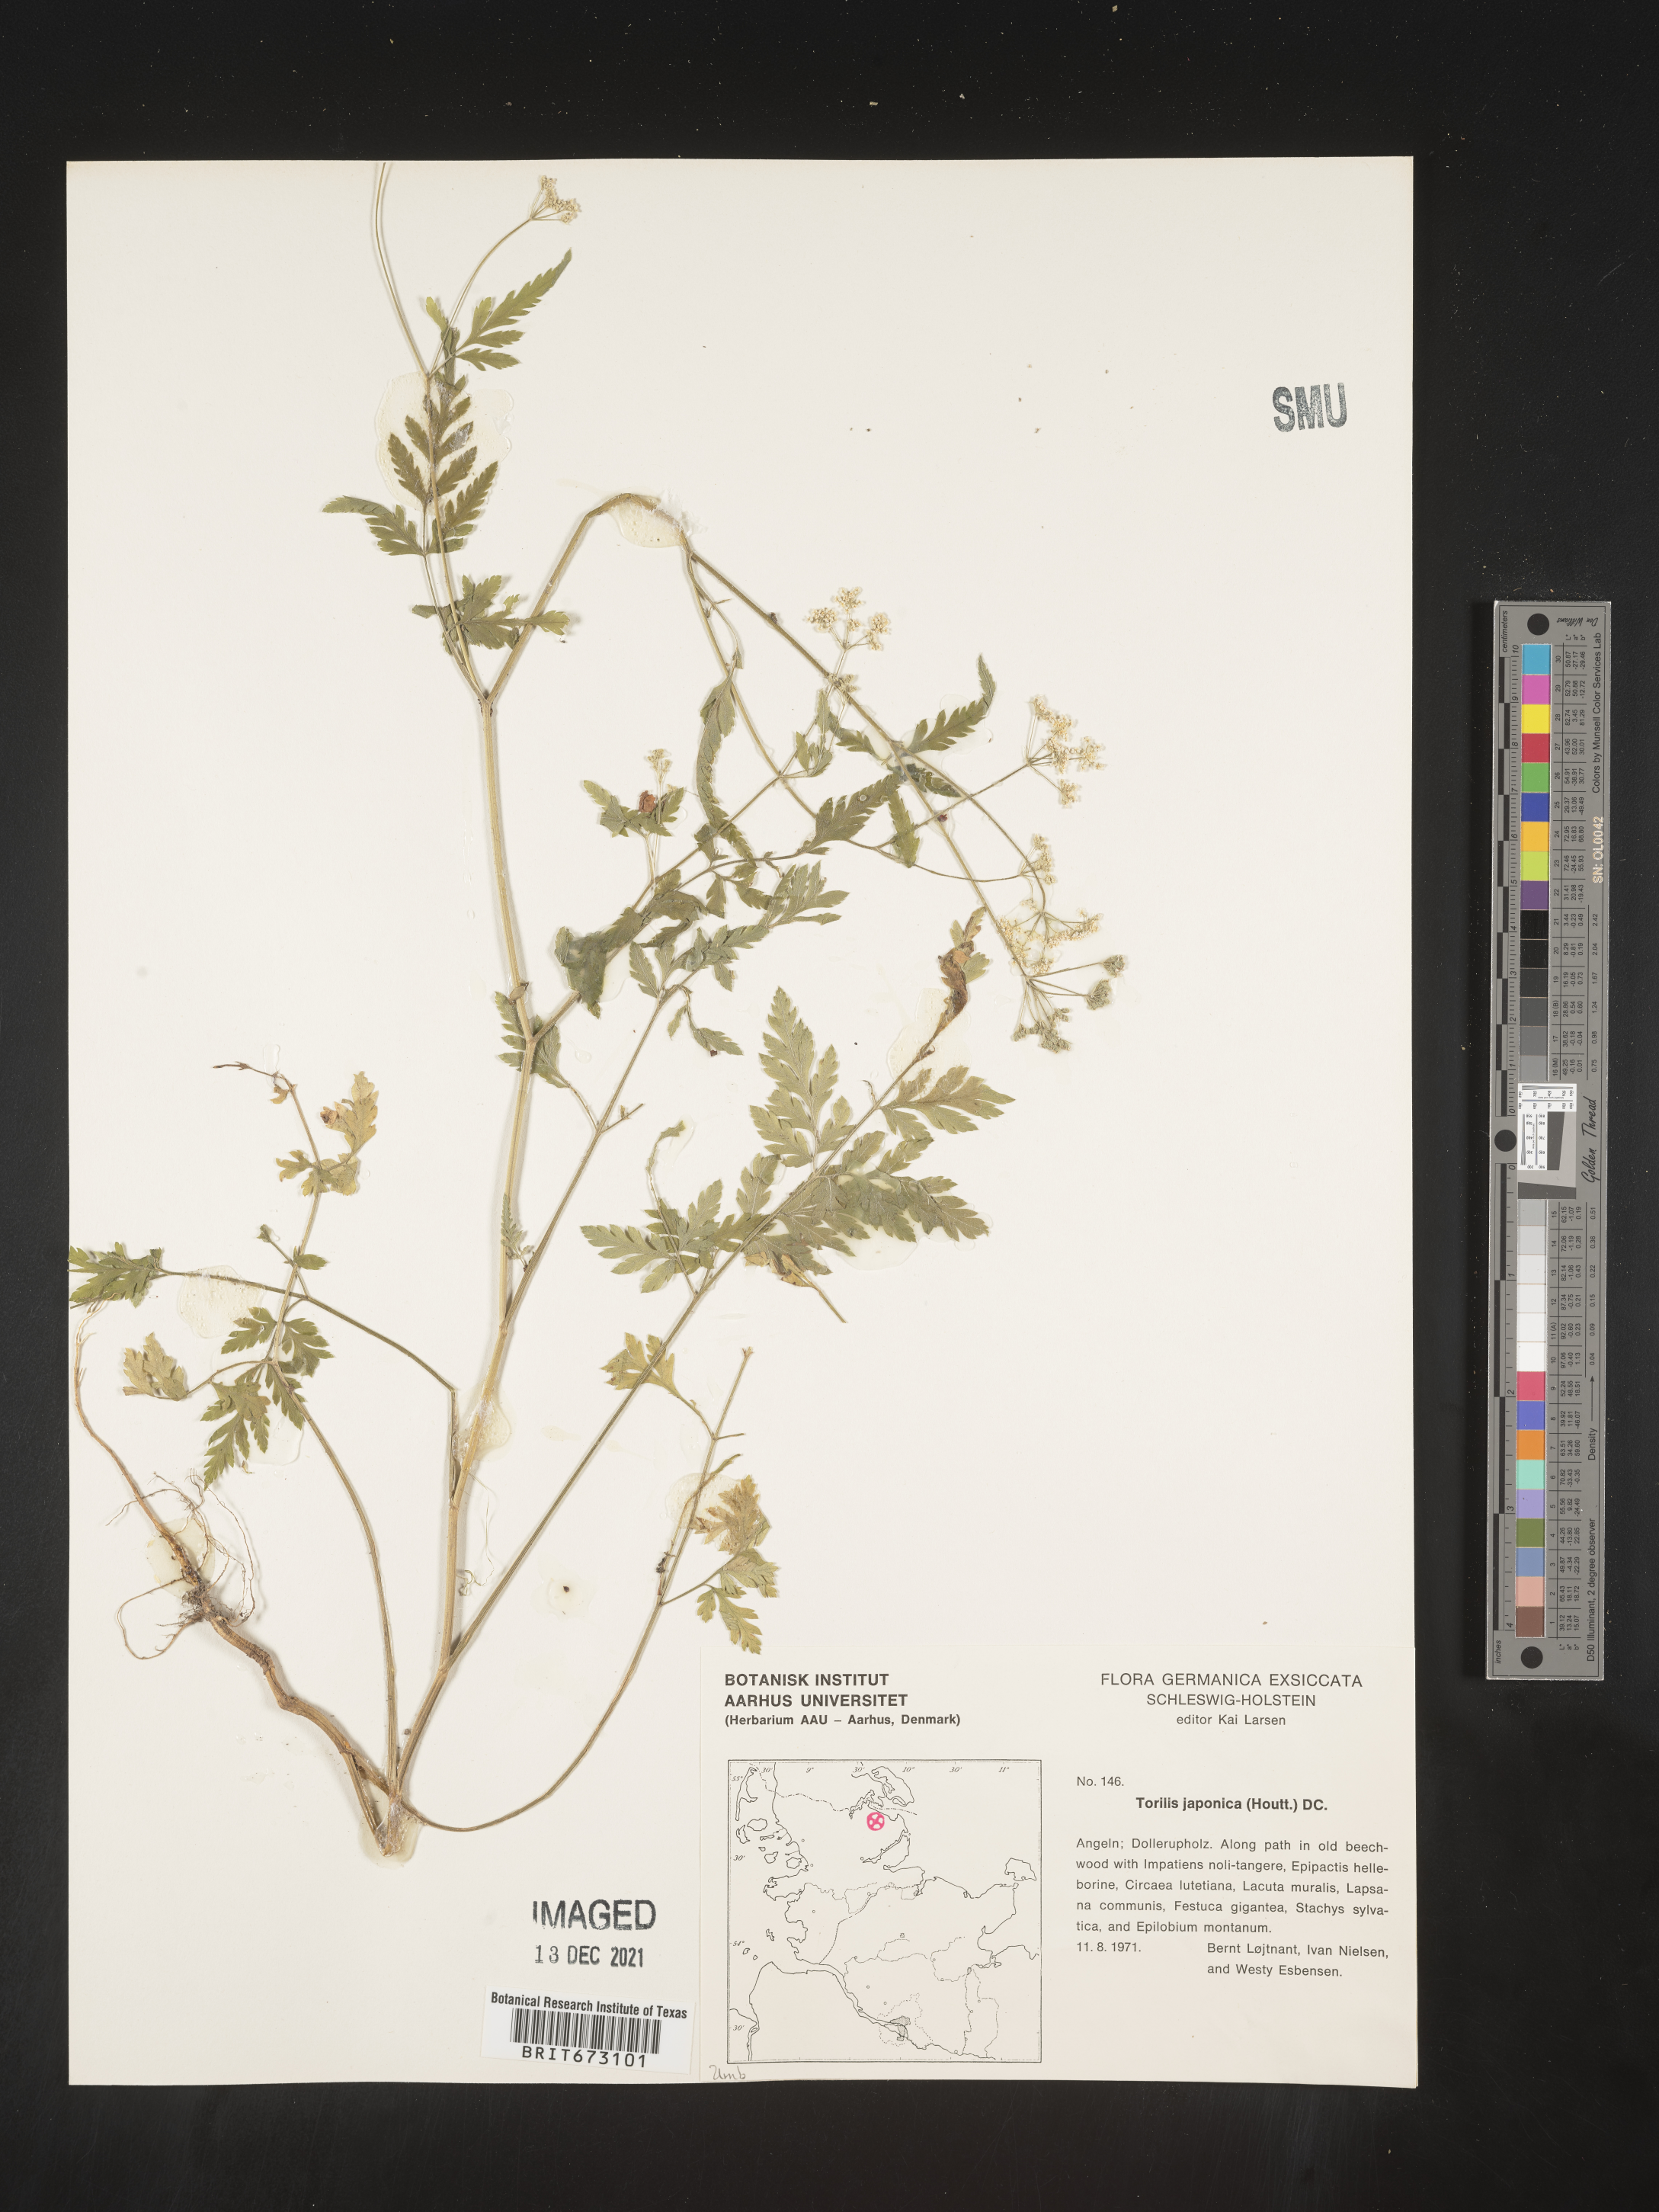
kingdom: Plantae
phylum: Tracheophyta
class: Magnoliopsida
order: Apiales
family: Apiaceae
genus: Torilis
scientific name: Torilis
